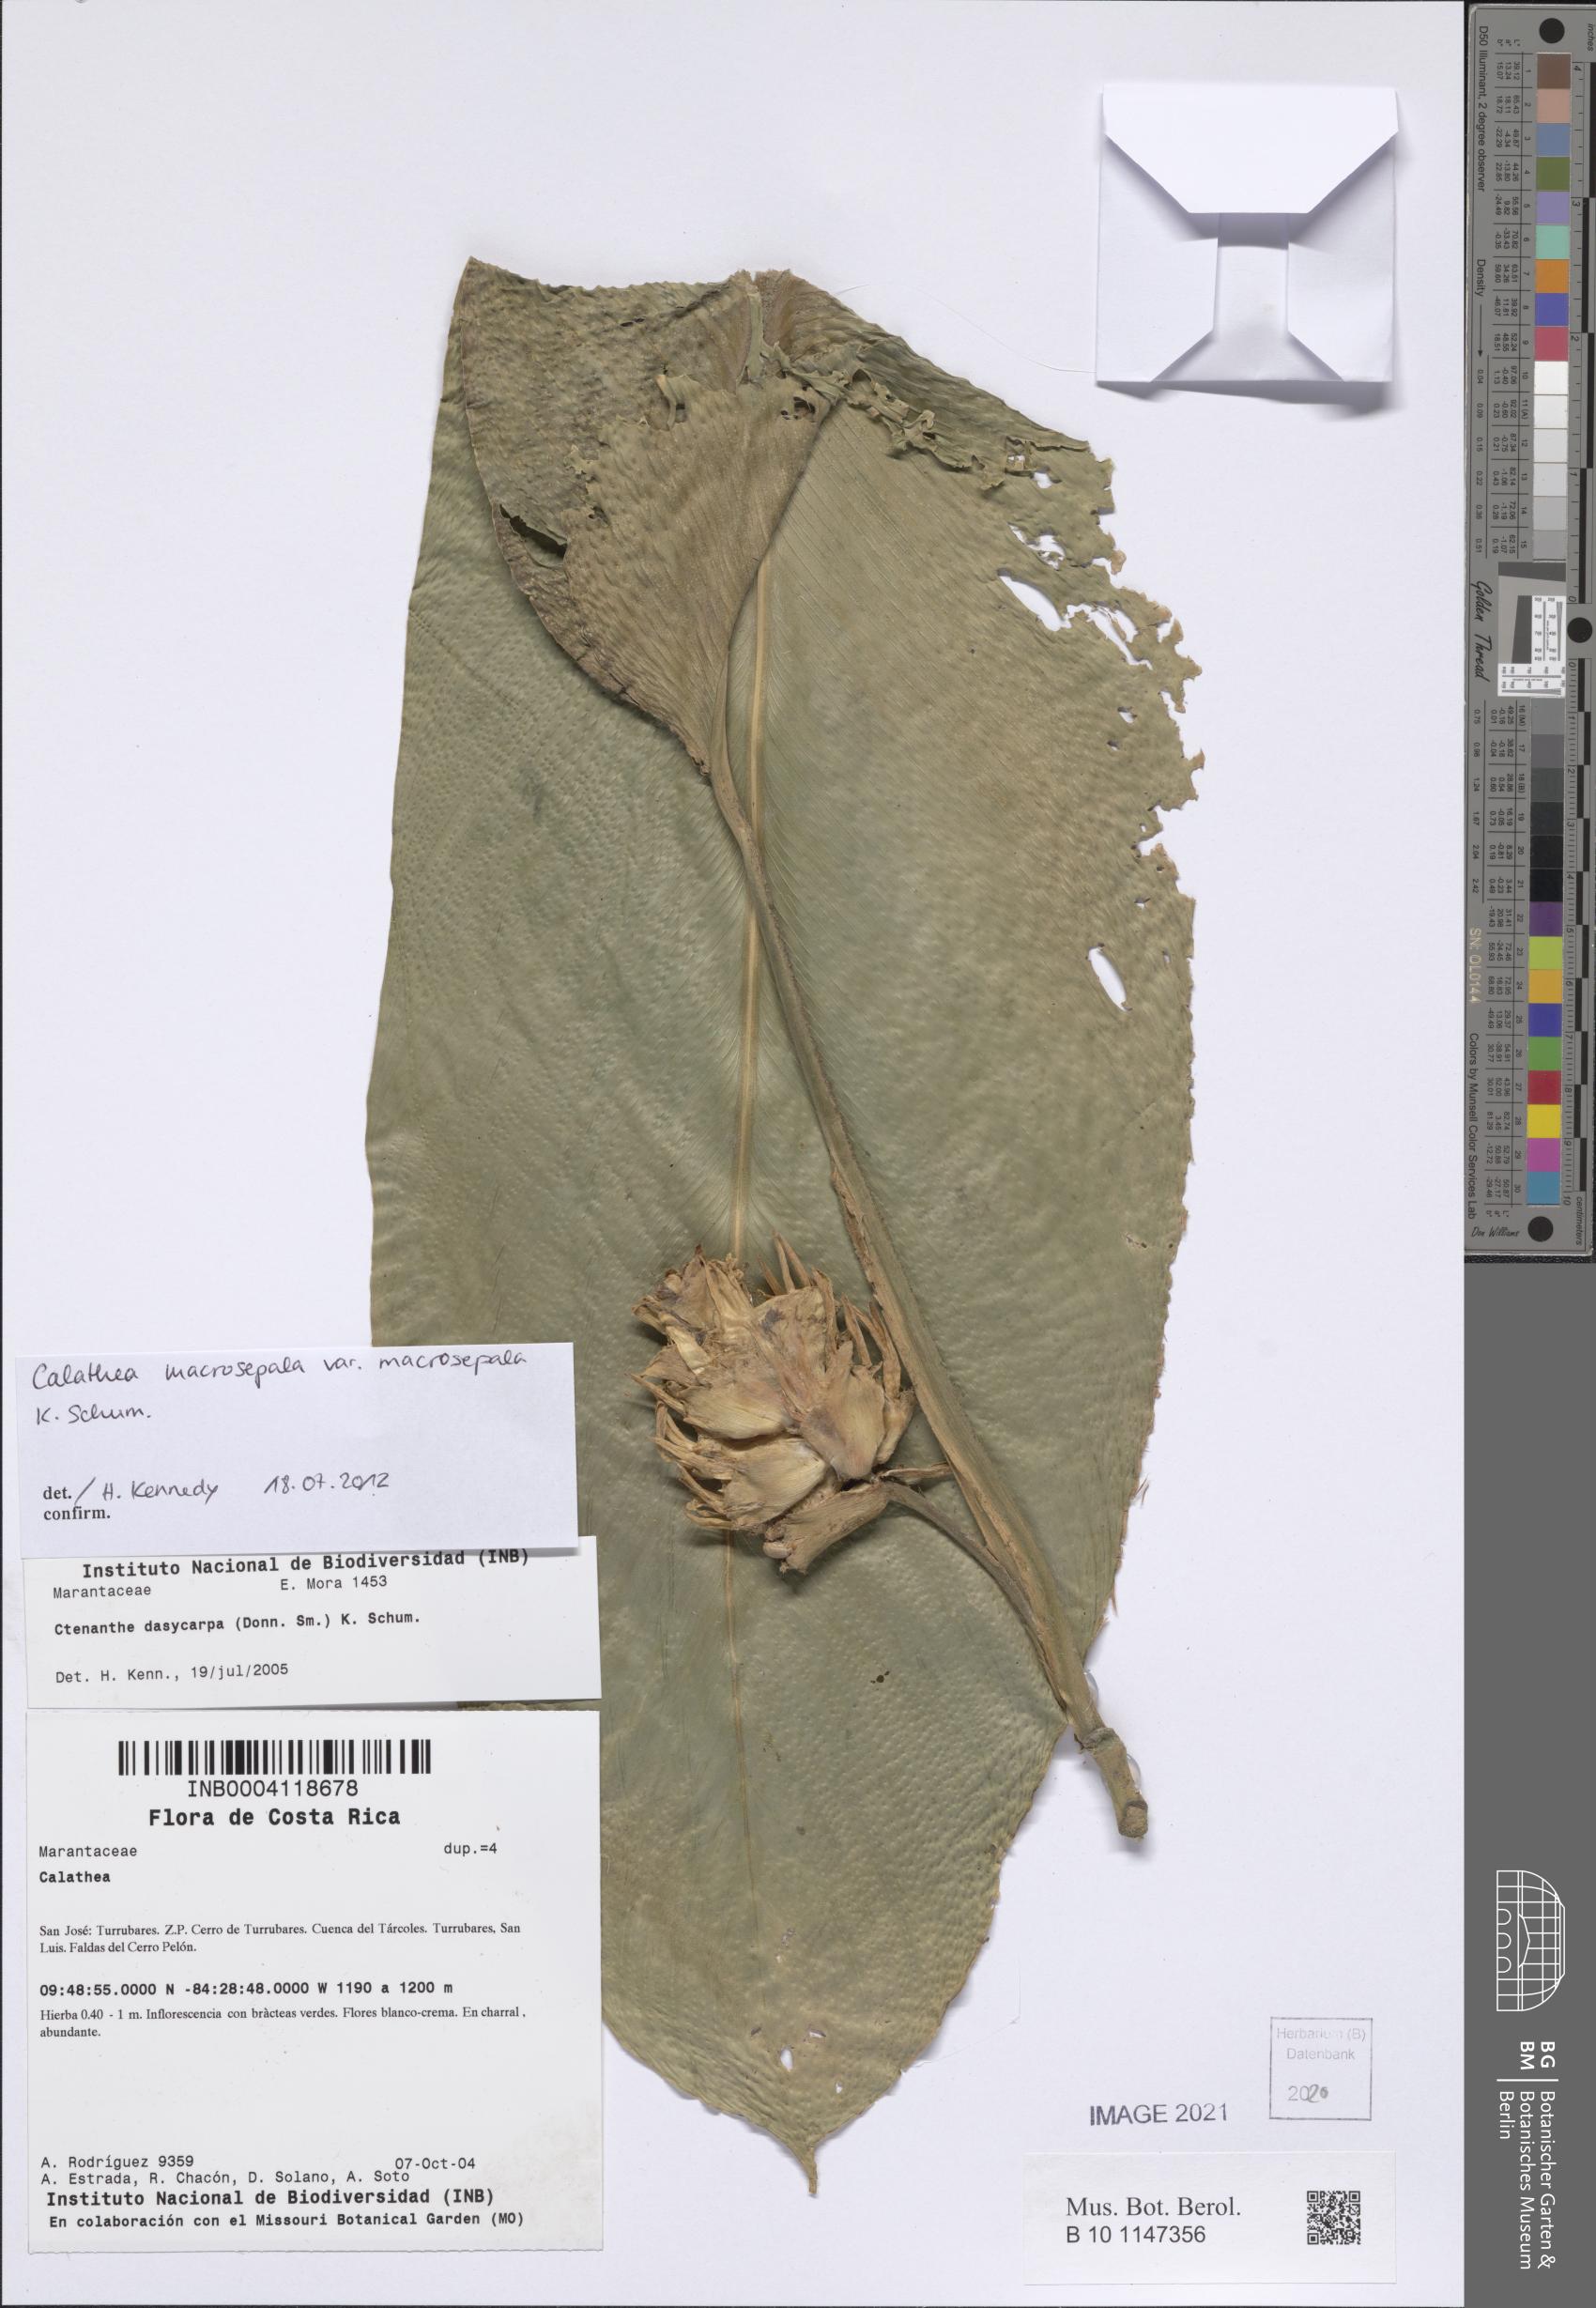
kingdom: Plantae
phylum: Tracheophyta
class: Liliopsida
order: Zingiberales
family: Marantaceae
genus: Goeppertia
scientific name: Goeppertia macrosepala
